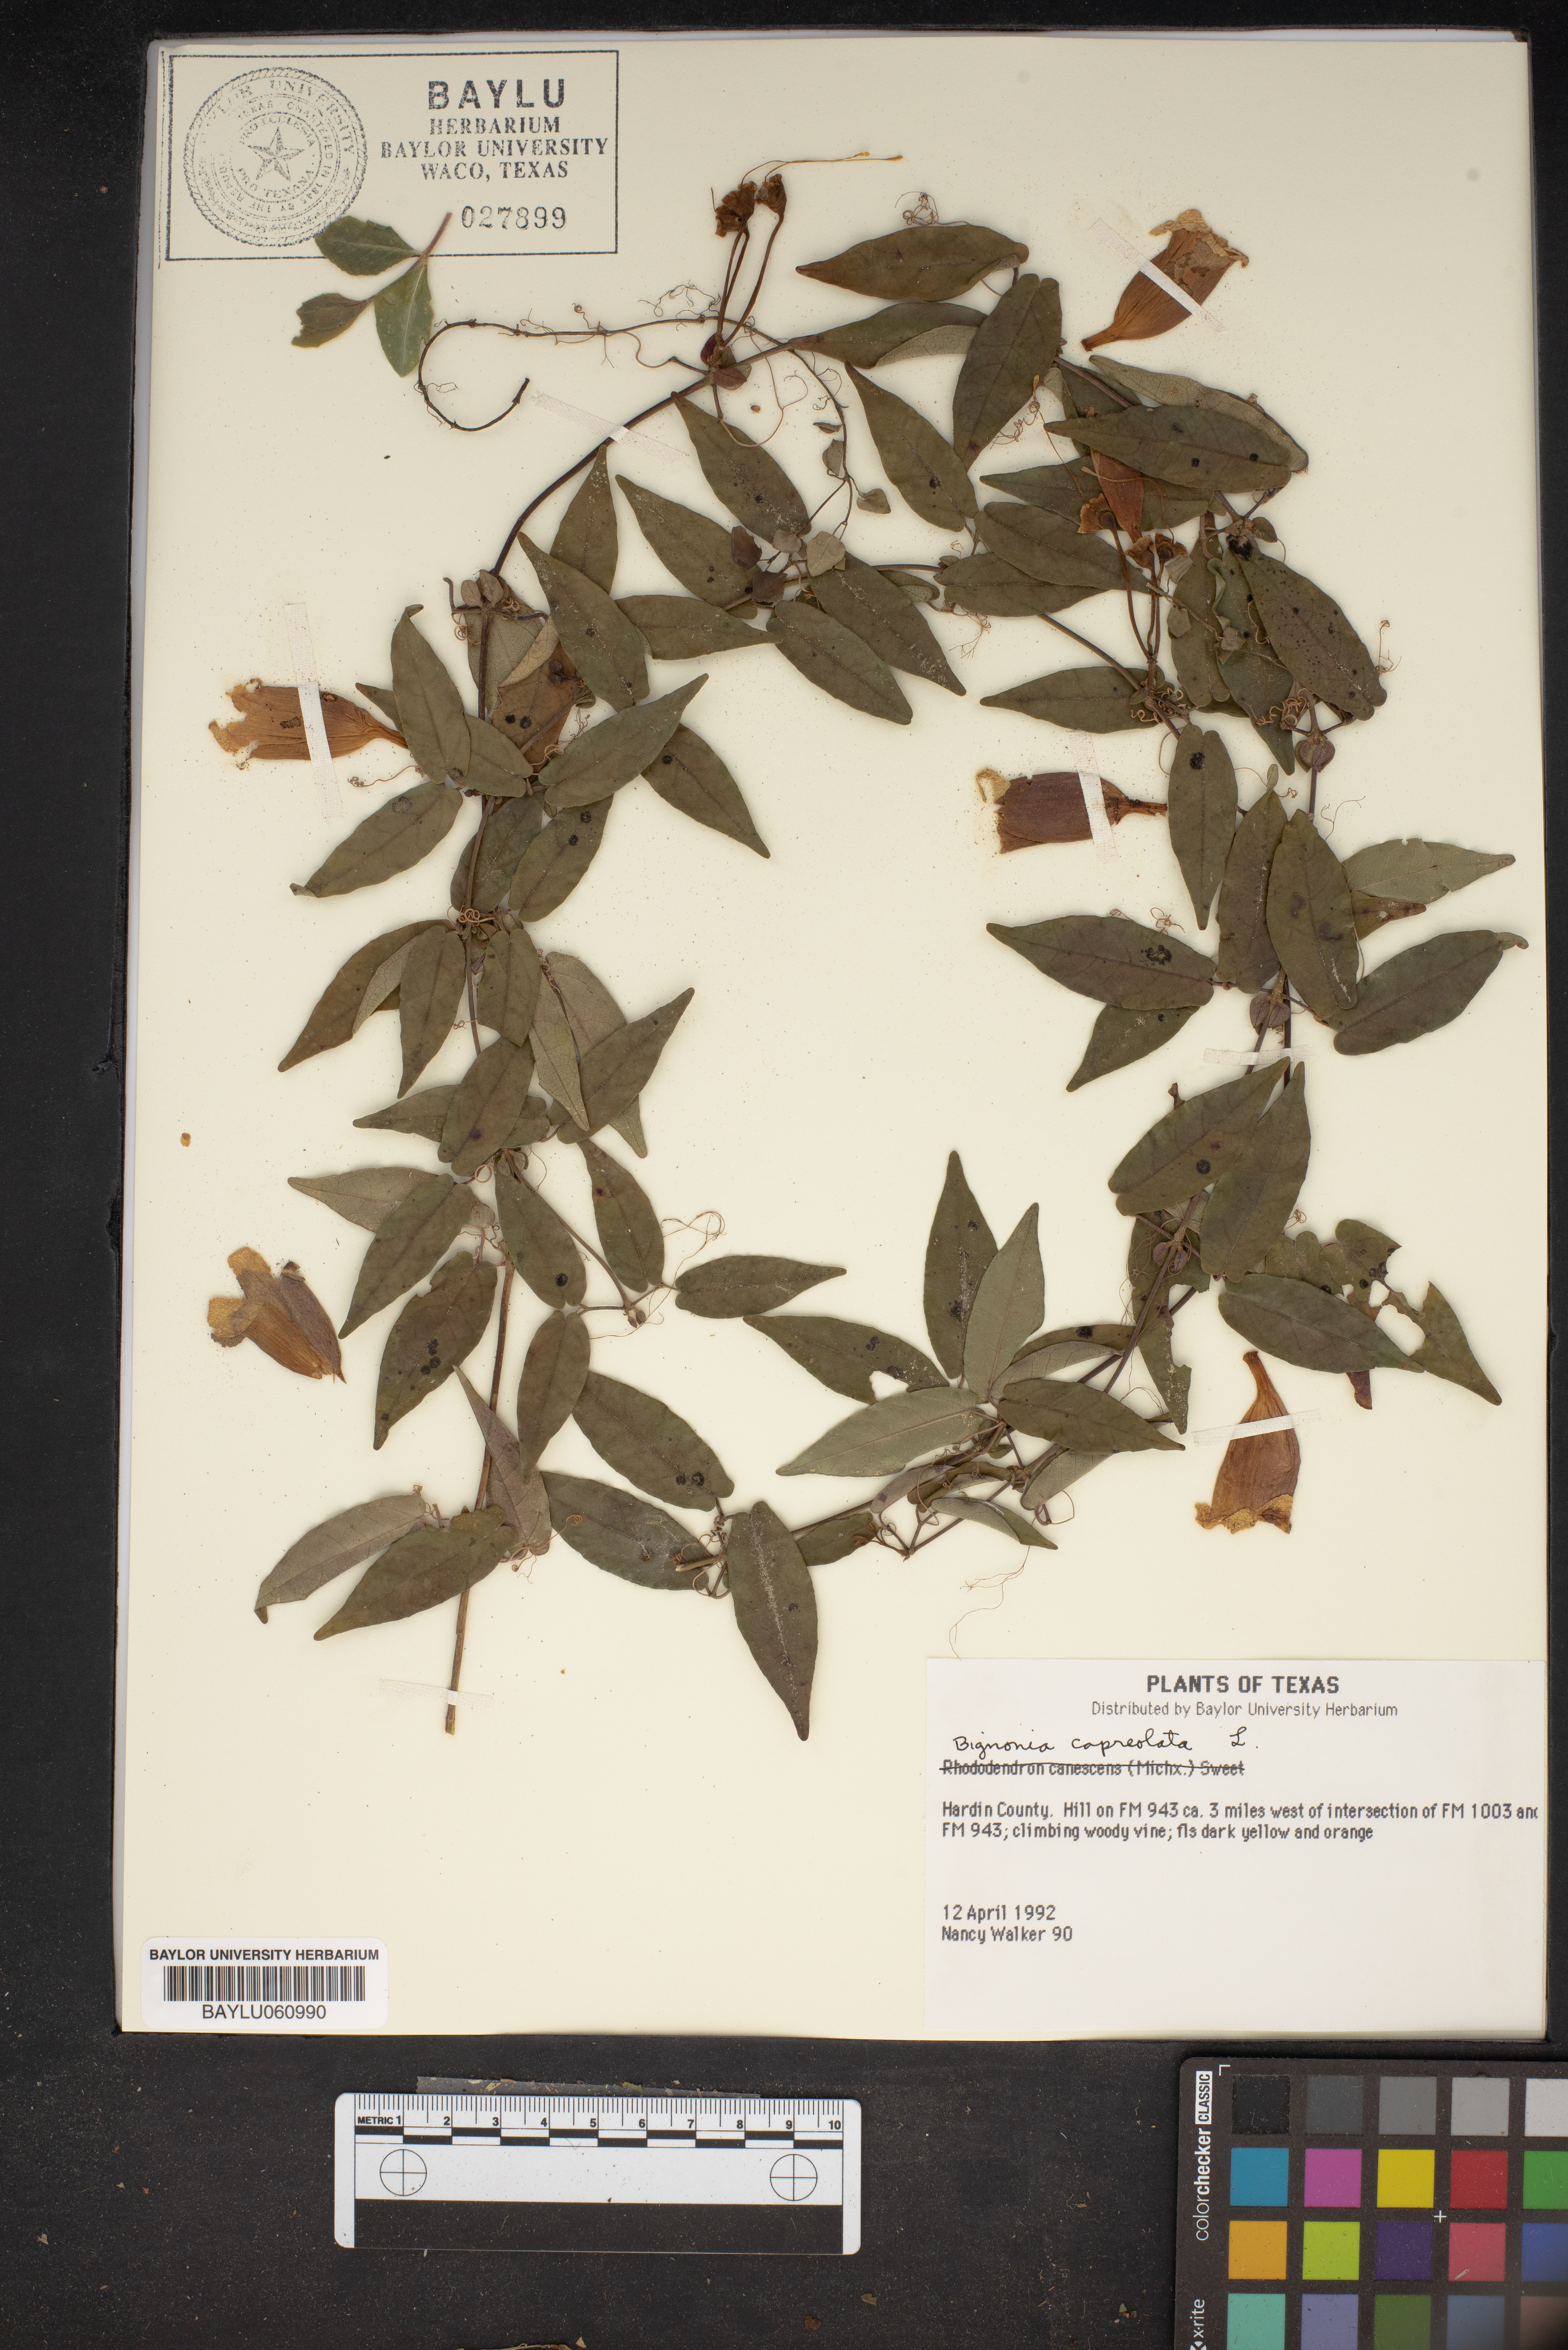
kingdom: Plantae
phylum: Tracheophyta
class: Magnoliopsida
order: Lamiales
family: Bignoniaceae
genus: Bignonia
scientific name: Bignonia
